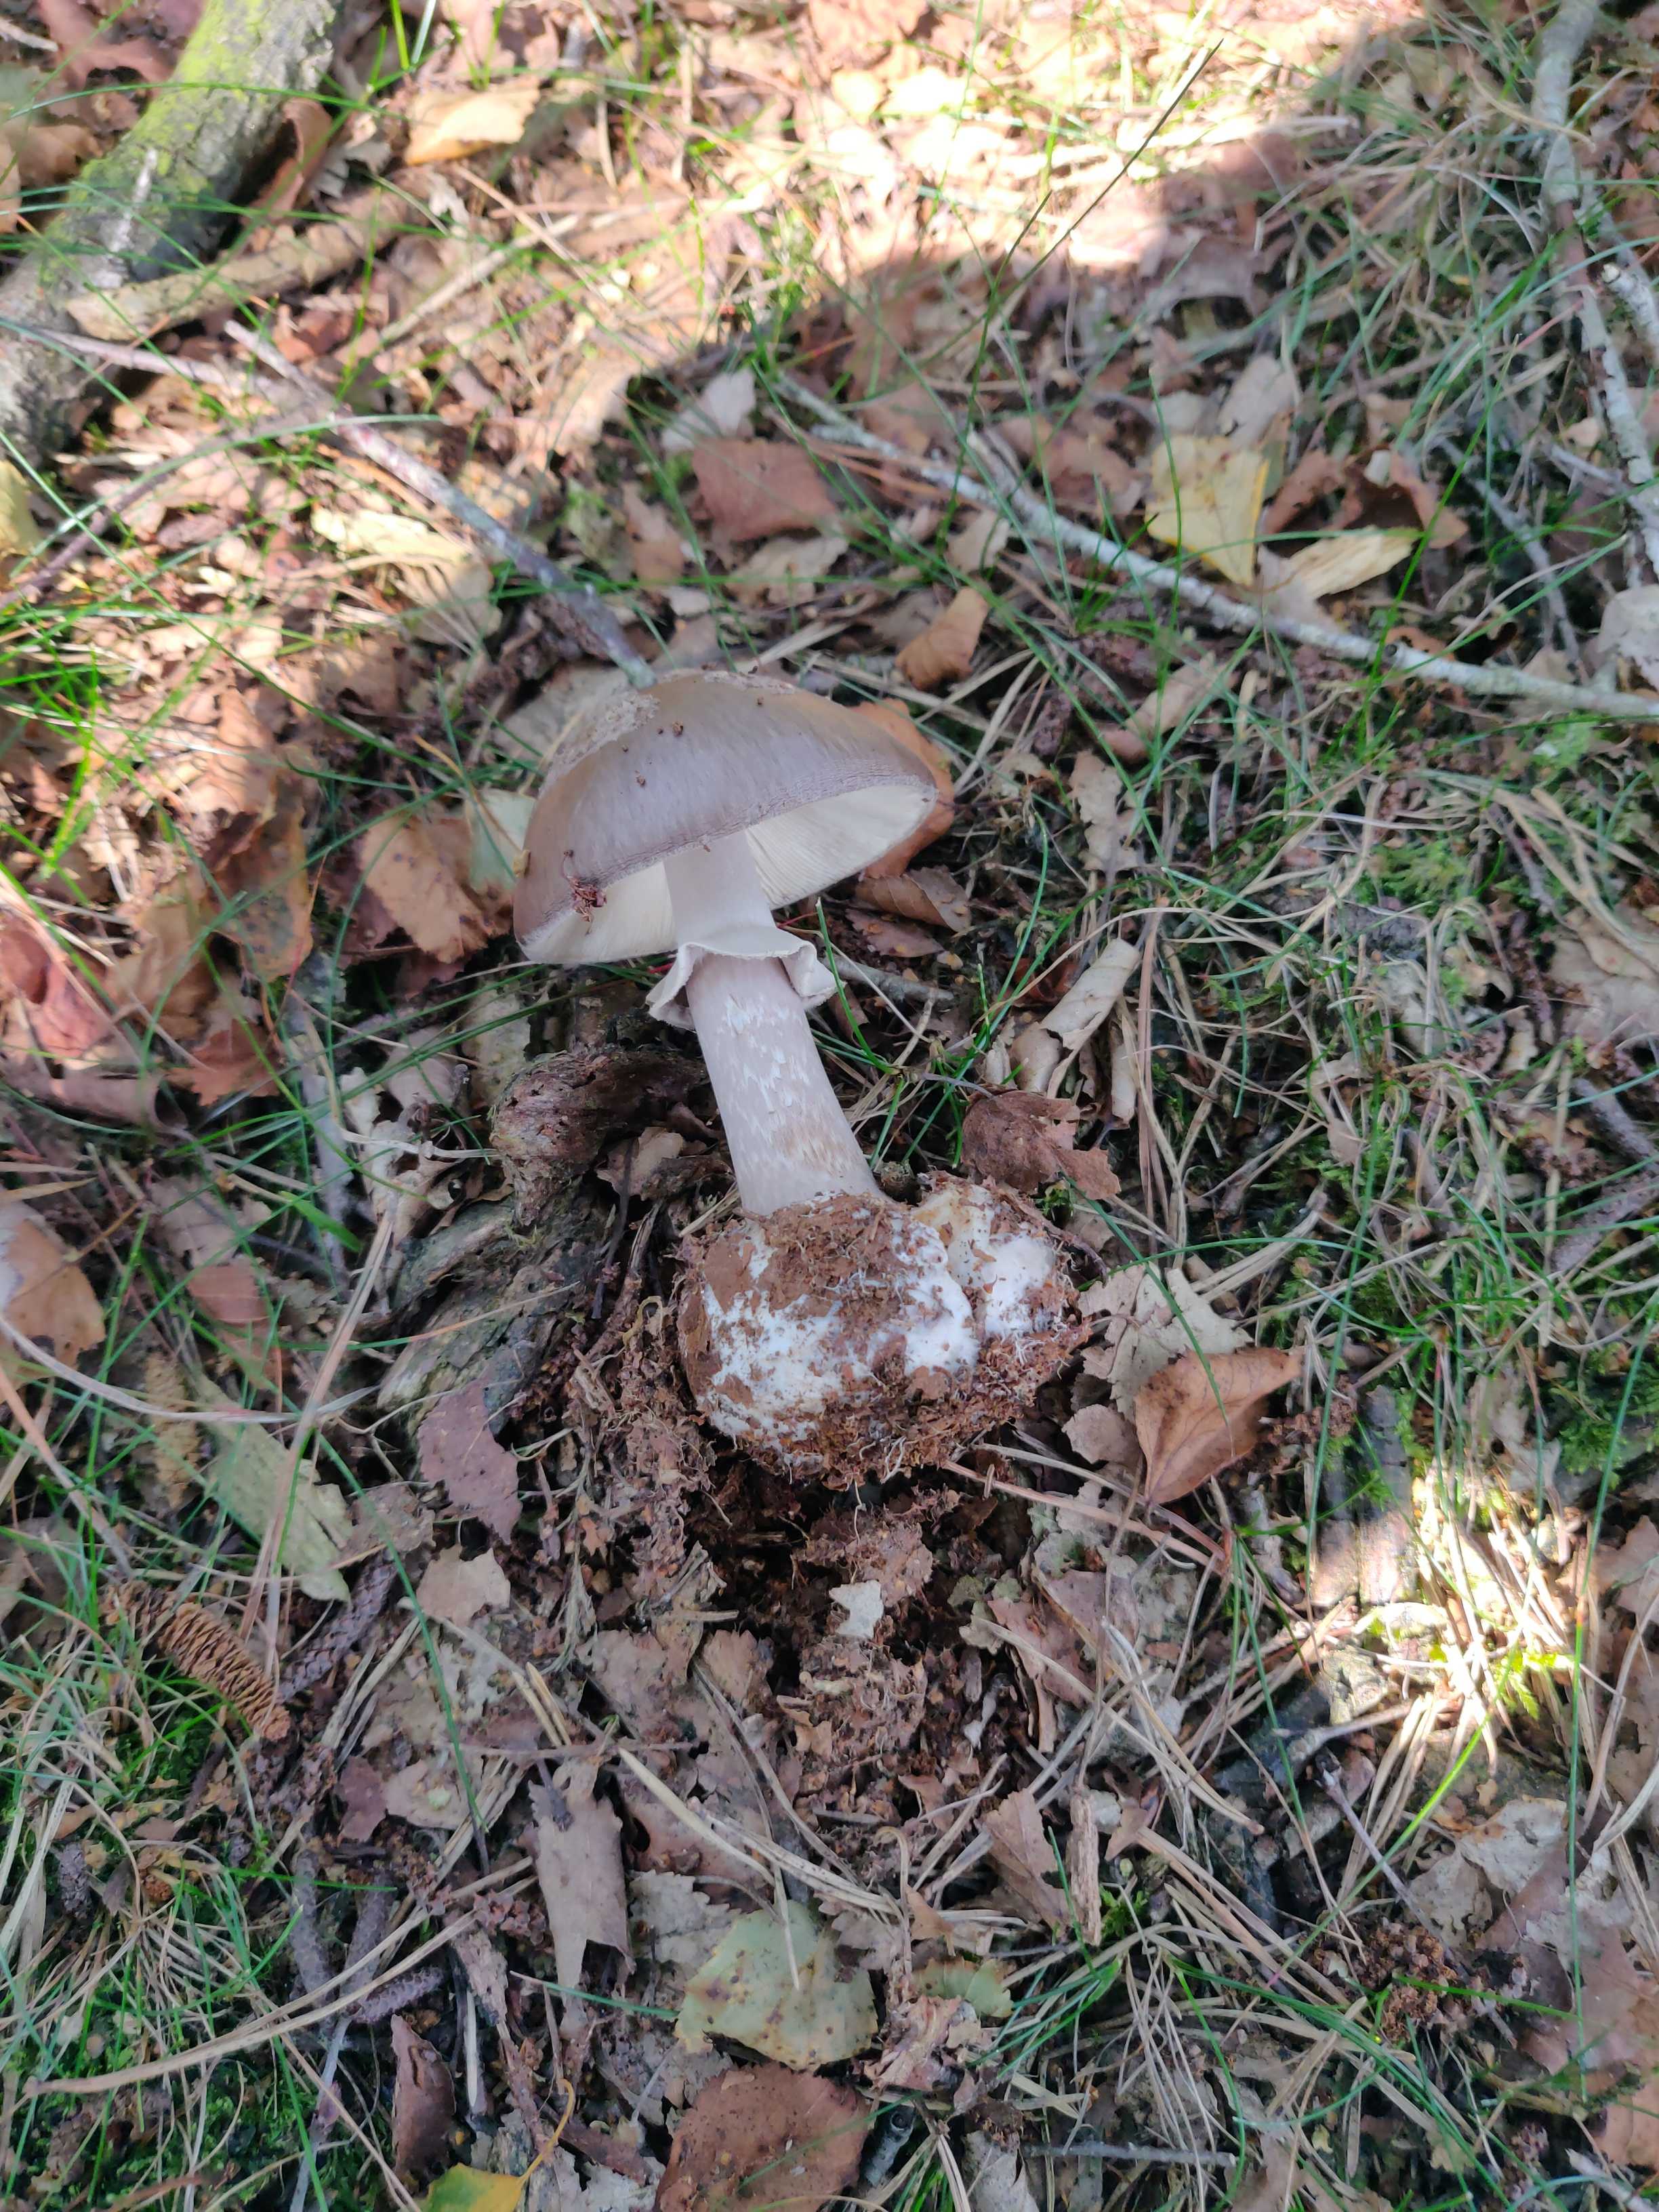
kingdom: Fungi
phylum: Basidiomycota
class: Agaricomycetes
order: Agaricales
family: Amanitaceae
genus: Amanita
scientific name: Amanita
